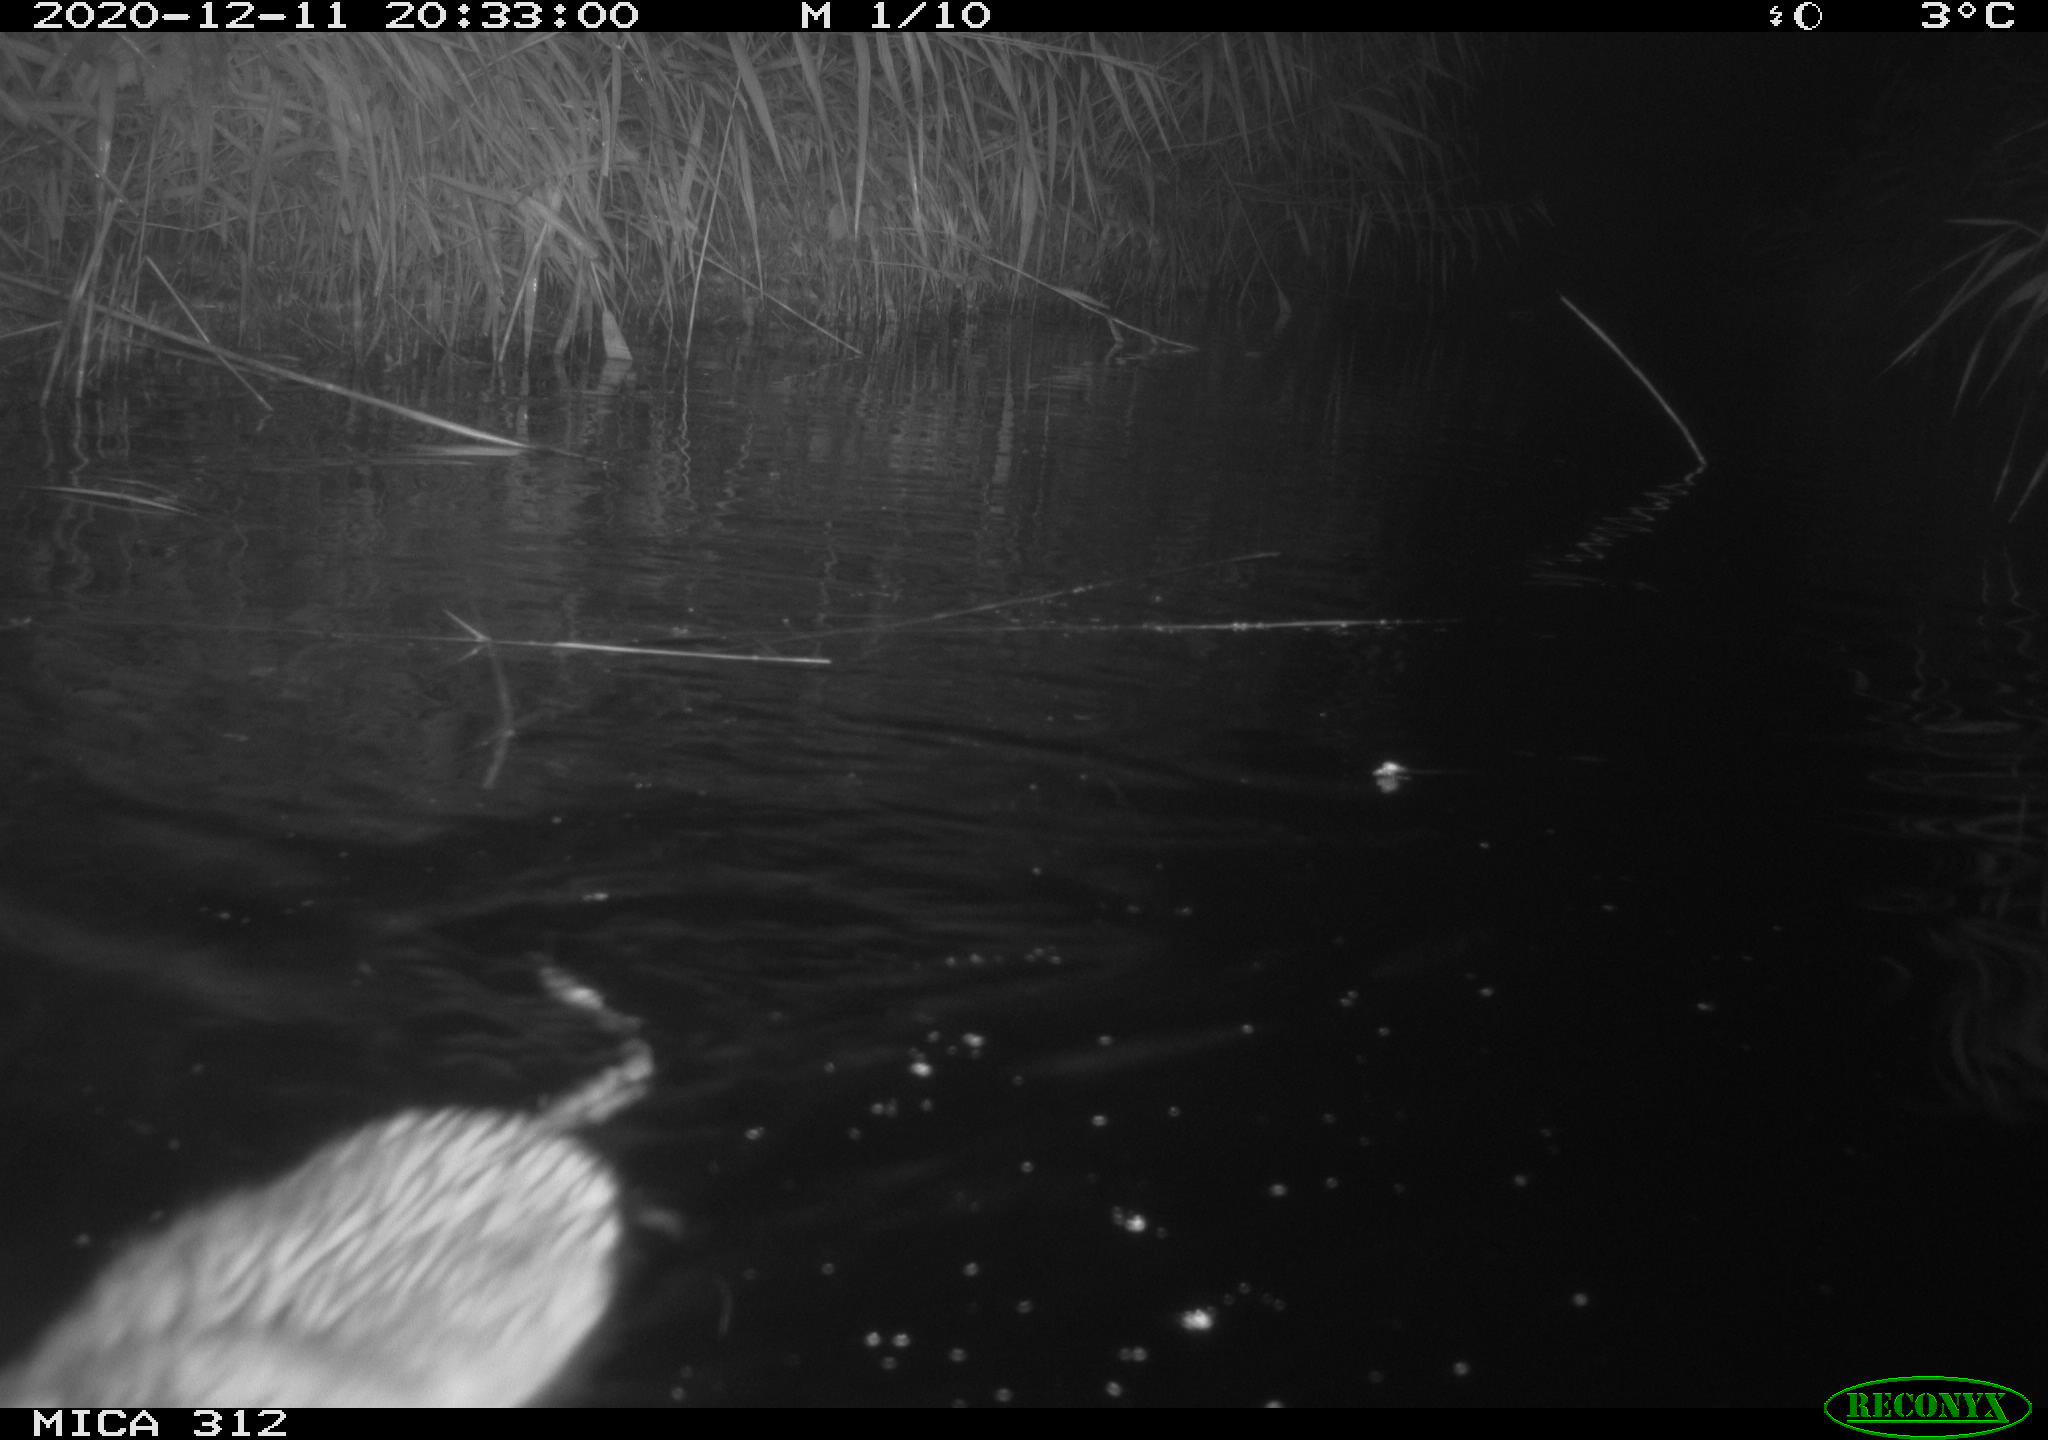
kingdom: Animalia
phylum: Chordata
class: Mammalia
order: Rodentia
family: Cricetidae
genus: Ondatra
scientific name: Ondatra zibethicus
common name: Muskrat
